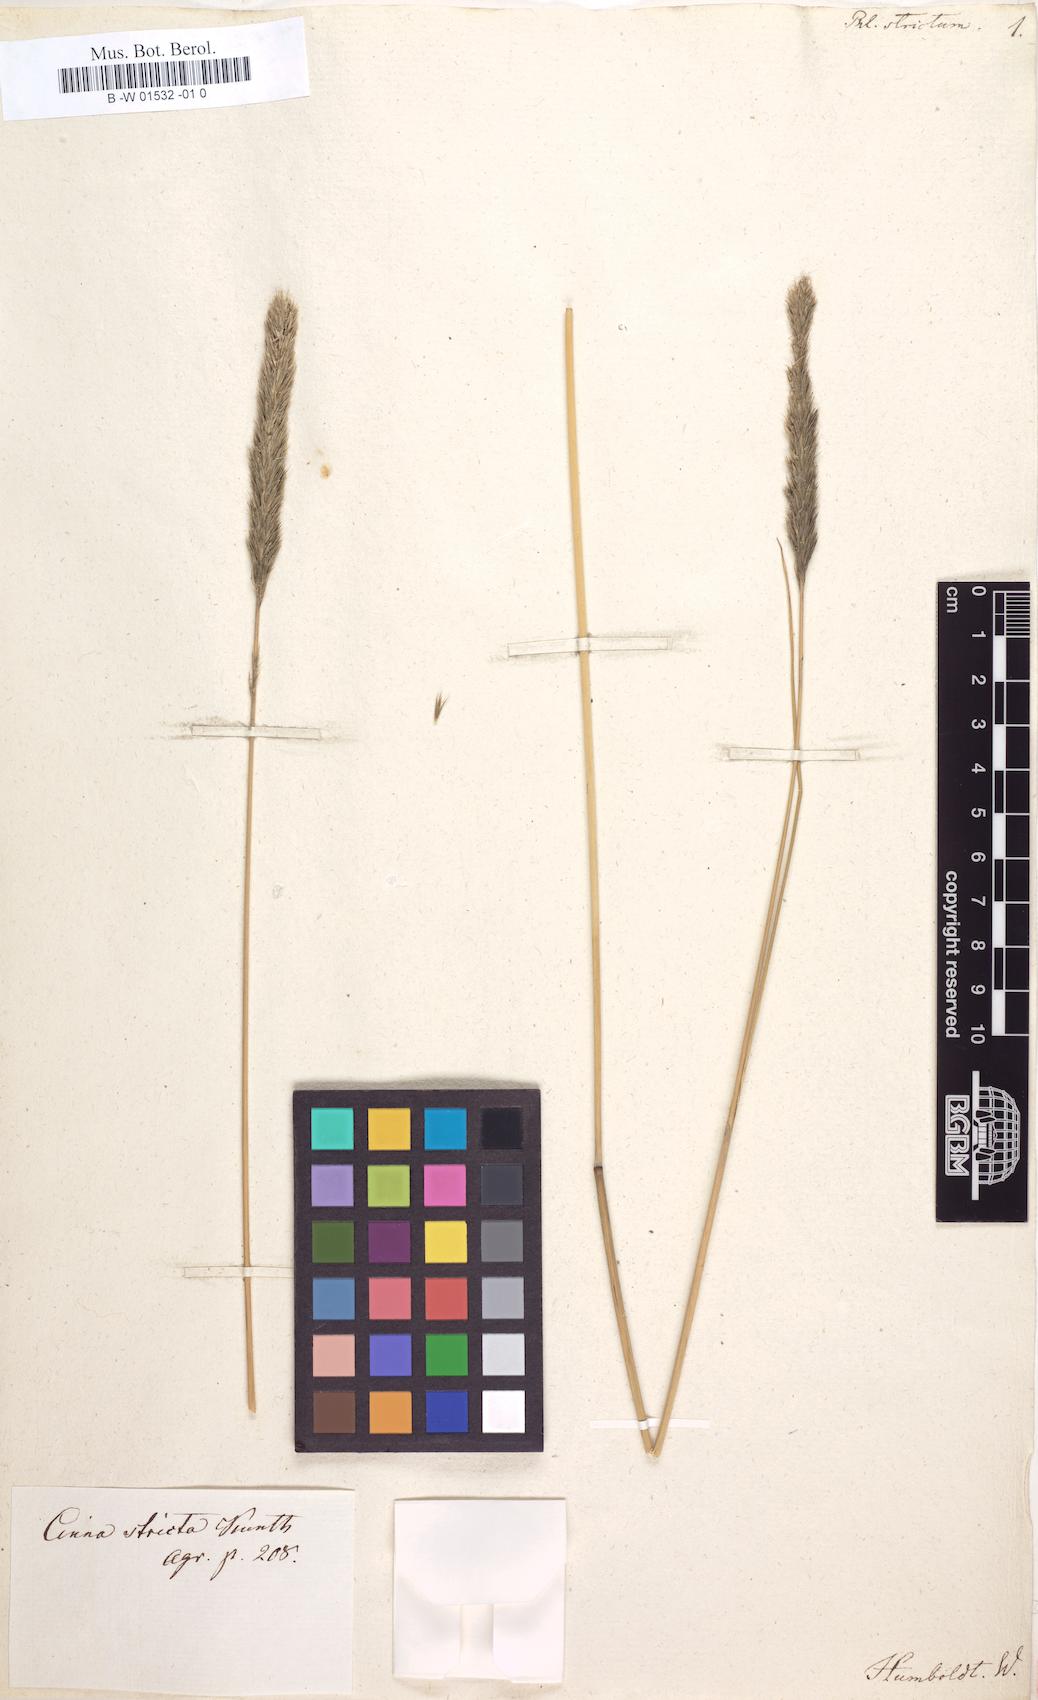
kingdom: Plantae
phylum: Tracheophyta
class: Liliopsida
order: Poales
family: Poaceae
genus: Muhlenbergia
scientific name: Muhlenbergia coerulea
